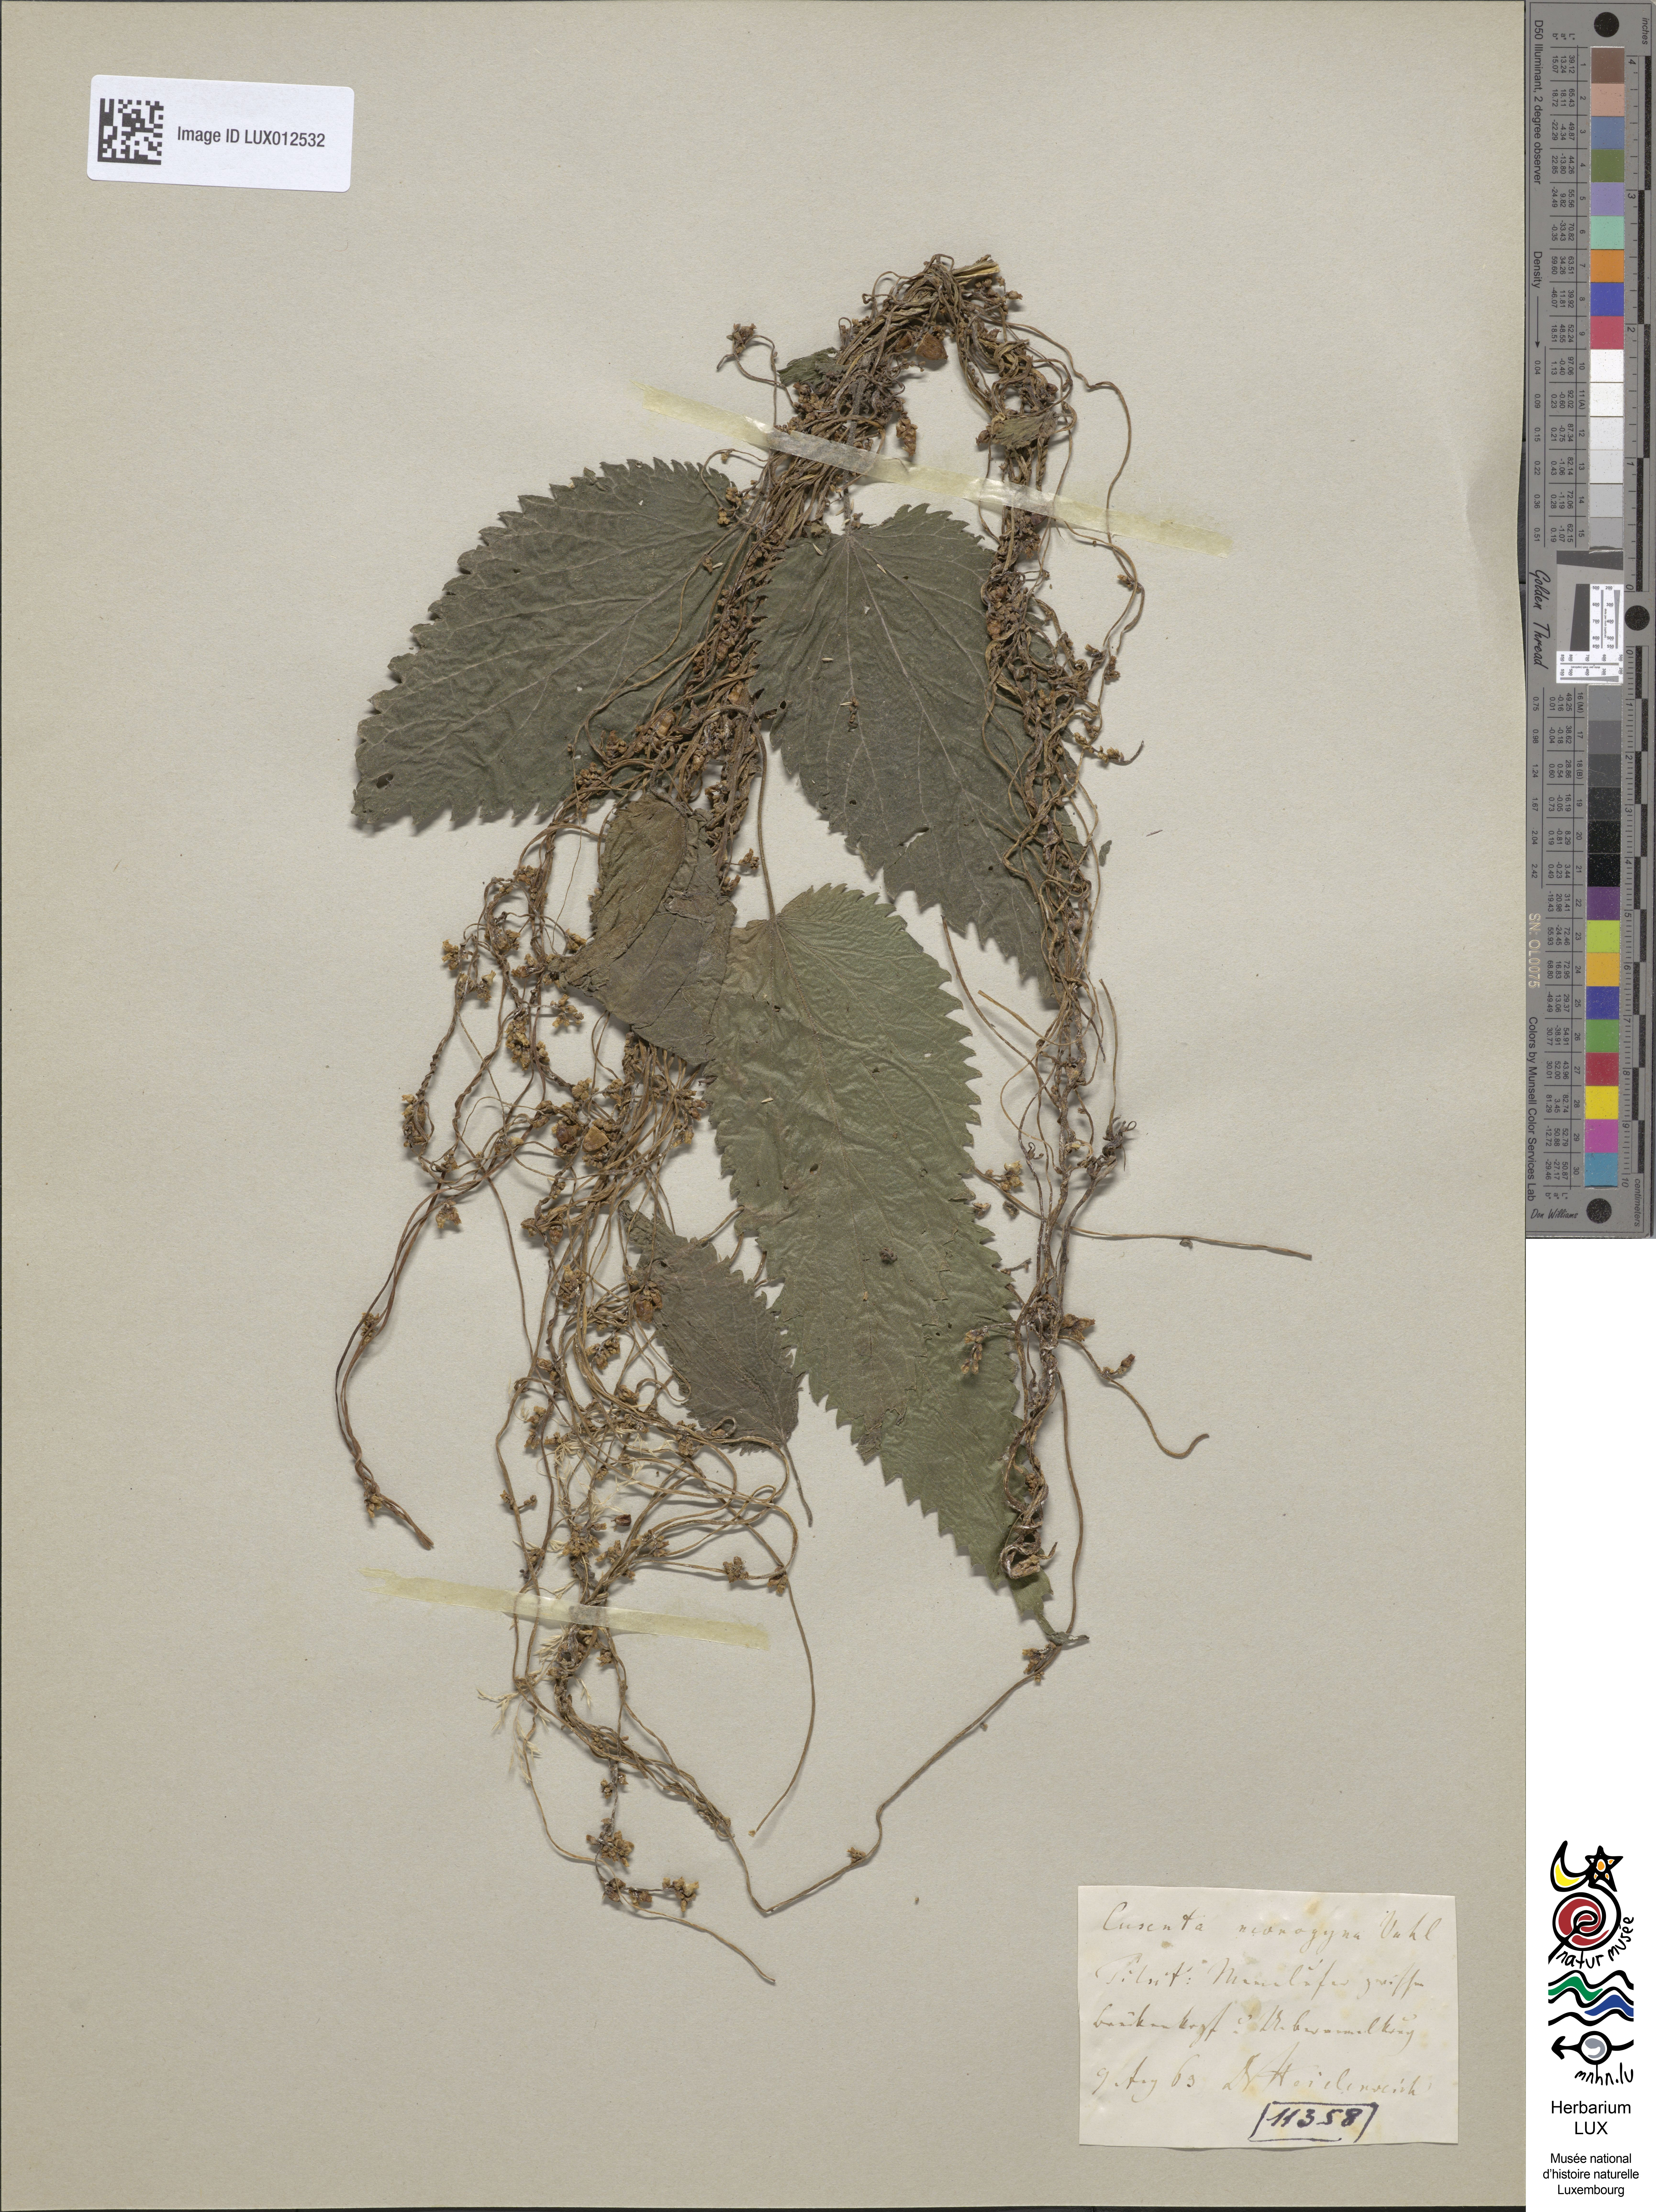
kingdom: Plantae
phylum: Tracheophyta
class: Magnoliopsida
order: Solanales
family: Convolvulaceae
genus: Cuscuta
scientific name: Cuscuta monogyna
